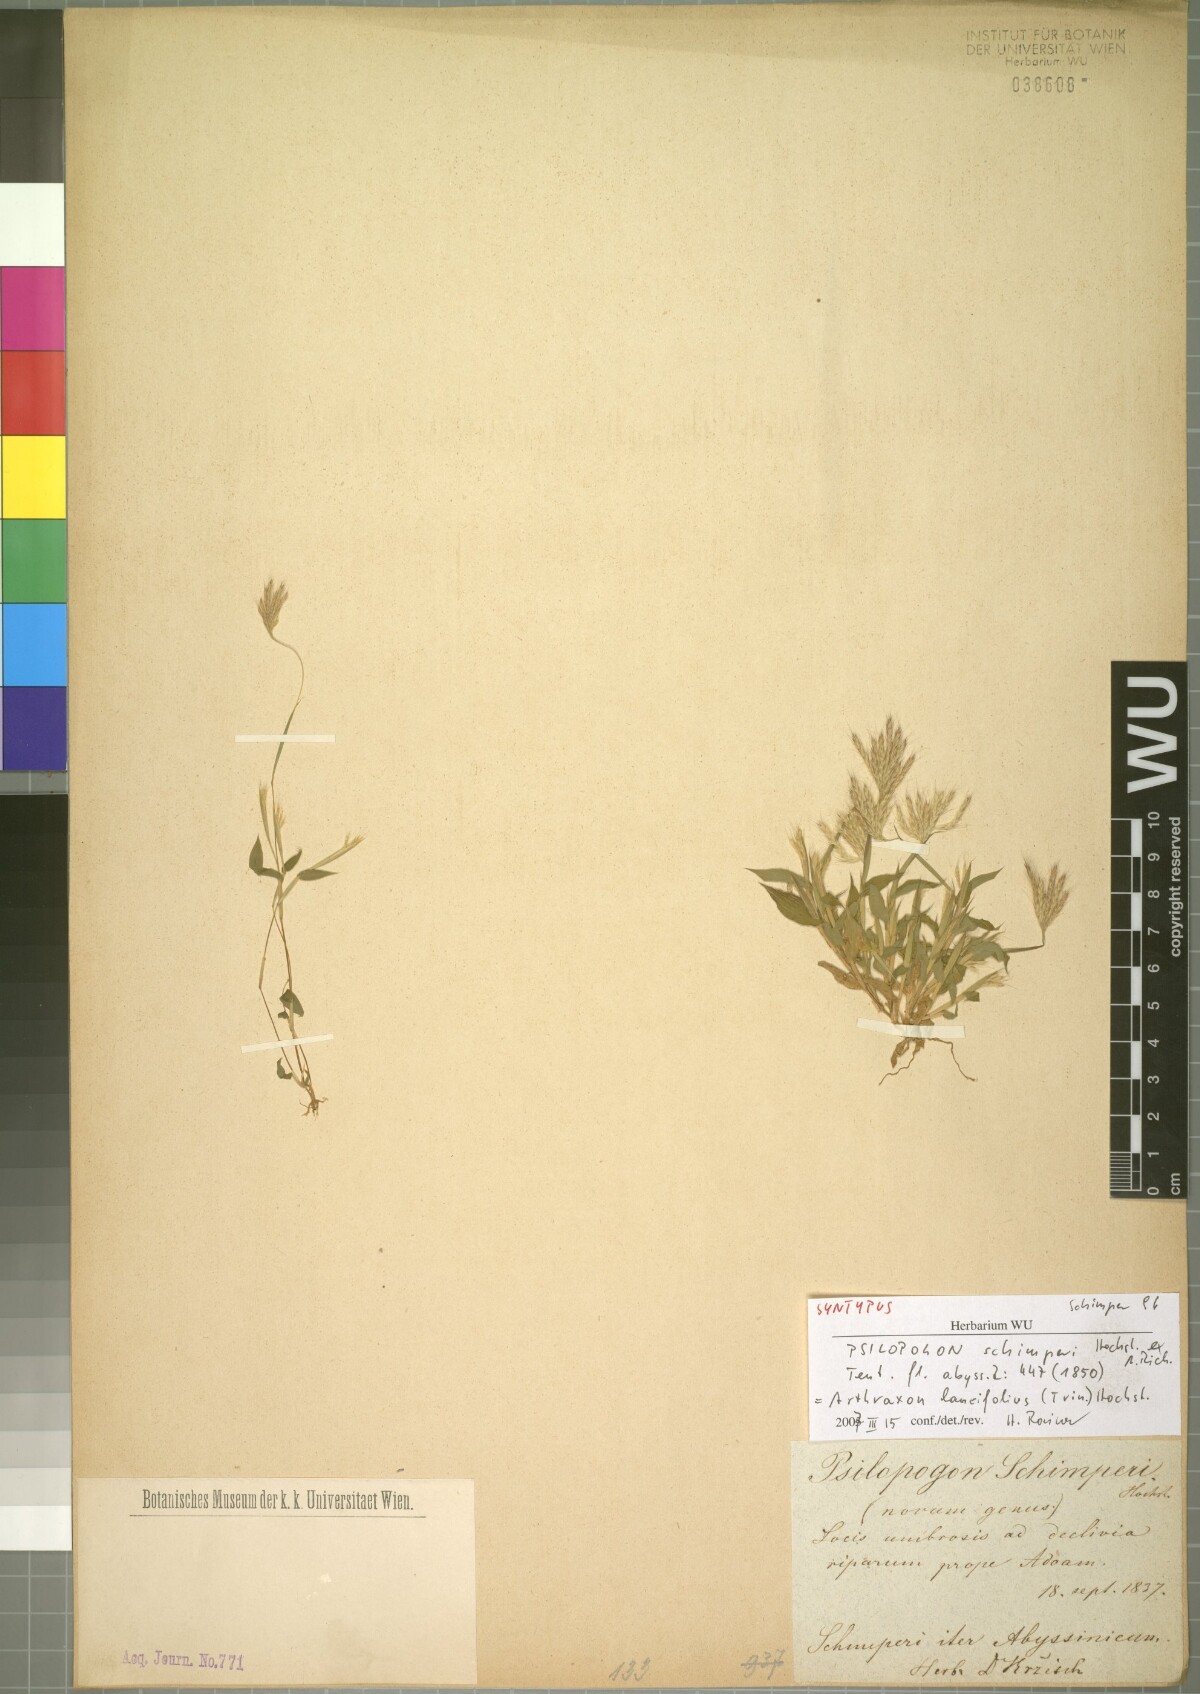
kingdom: Plantae
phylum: Tracheophyta
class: Liliopsida
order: Poales
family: Poaceae
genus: Arthraxon
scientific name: Arthraxon lancifolius
